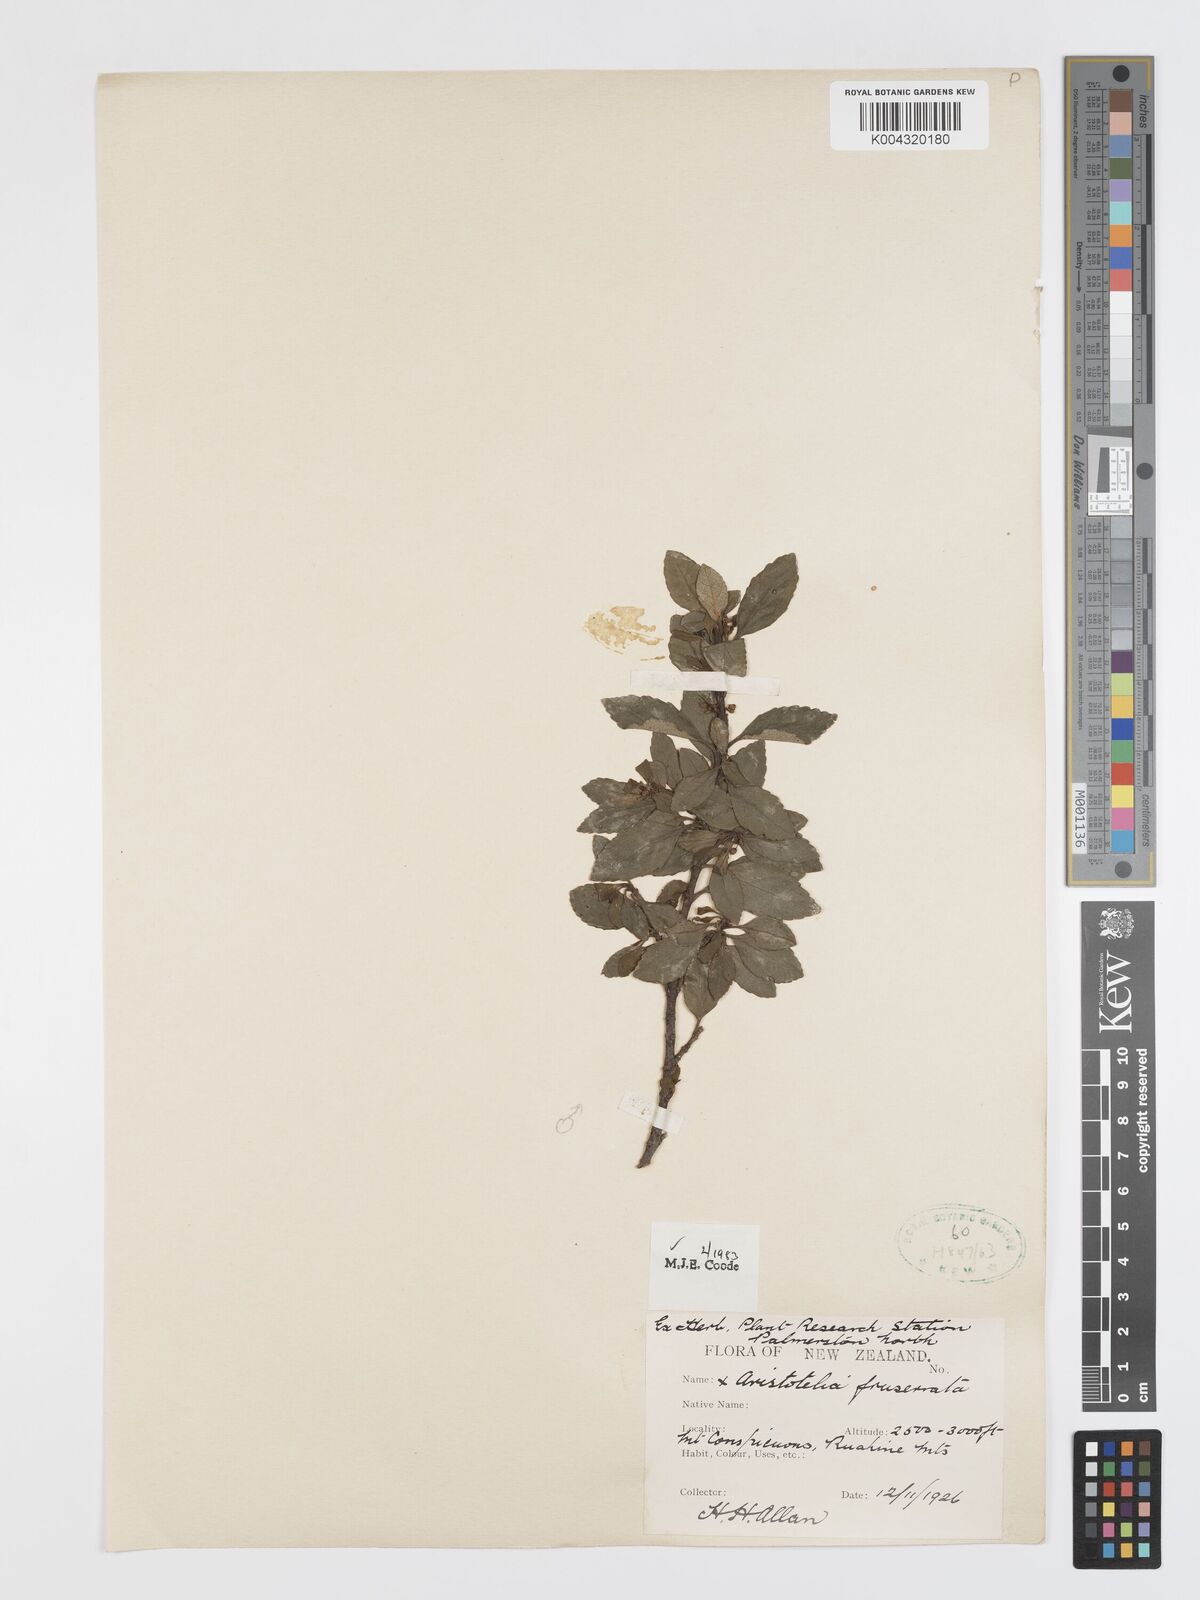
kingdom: Plantae
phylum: Tracheophyta
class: Magnoliopsida
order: Oxalidales
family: Elaeocarpaceae
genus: Aristotelia
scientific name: Aristotelia fruticosa
